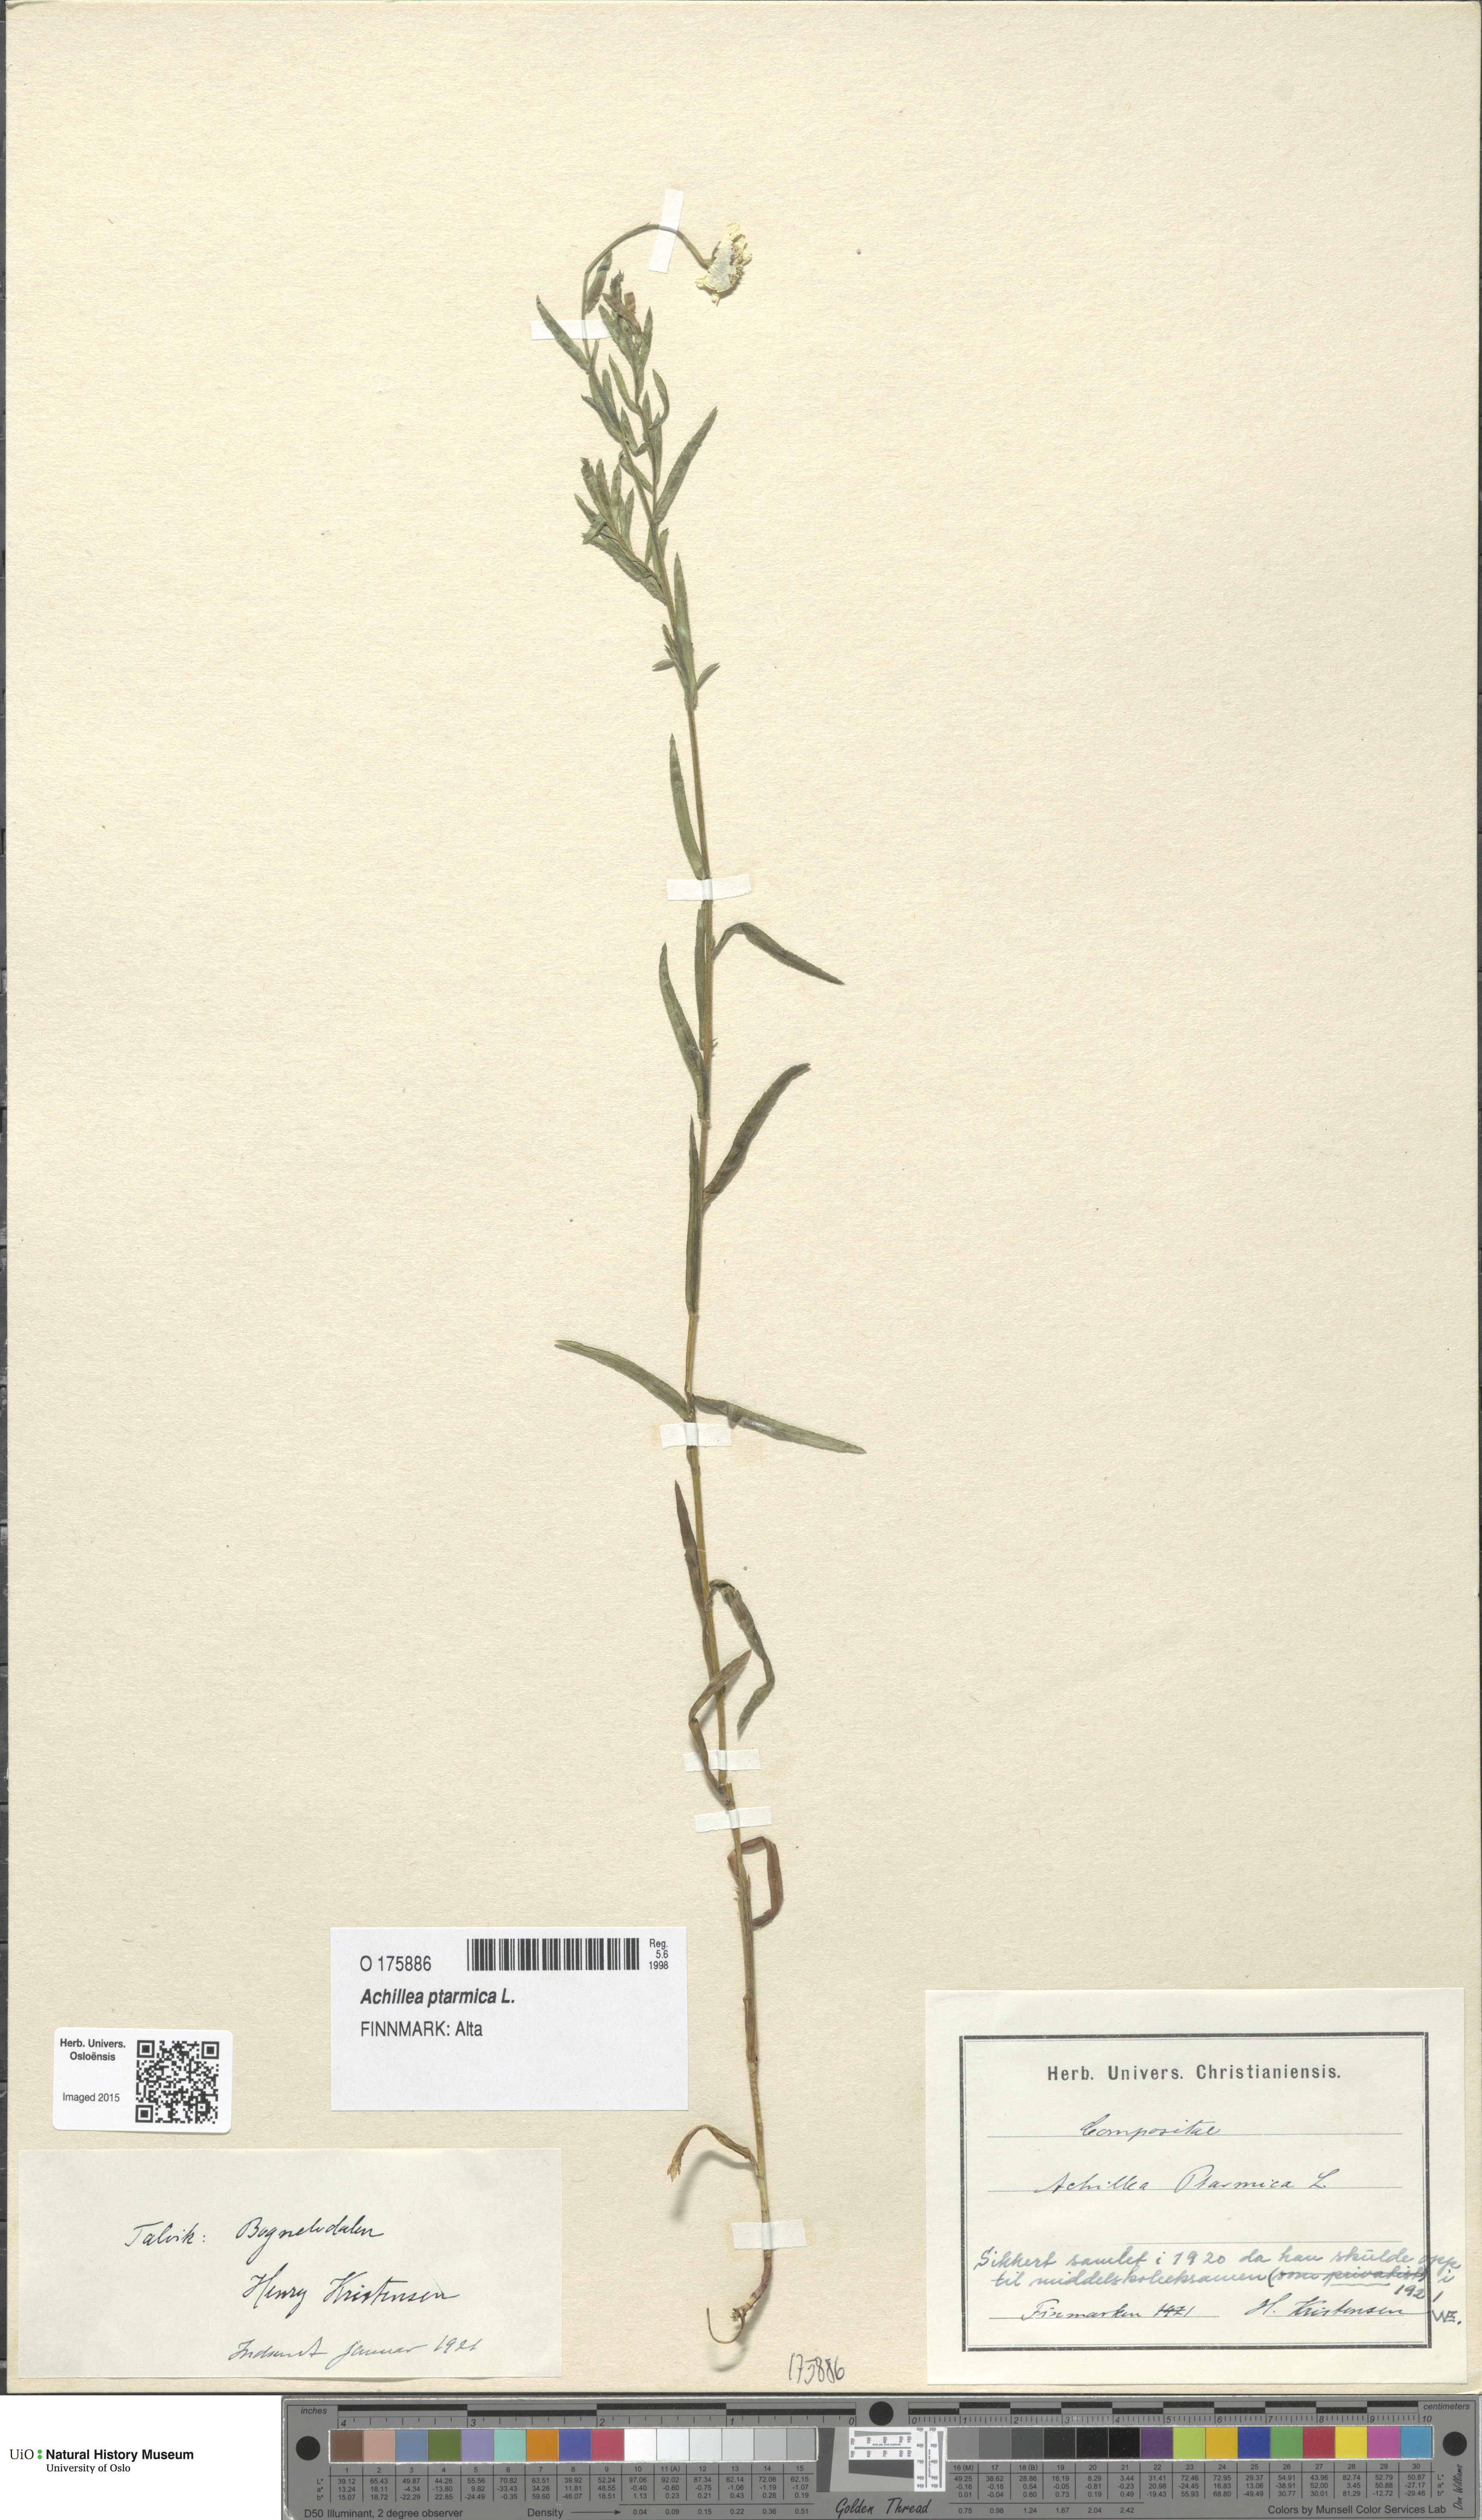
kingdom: Plantae
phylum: Tracheophyta
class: Magnoliopsida
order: Asterales
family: Asteraceae
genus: Achillea
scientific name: Achillea ptarmica
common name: Sneezeweed
